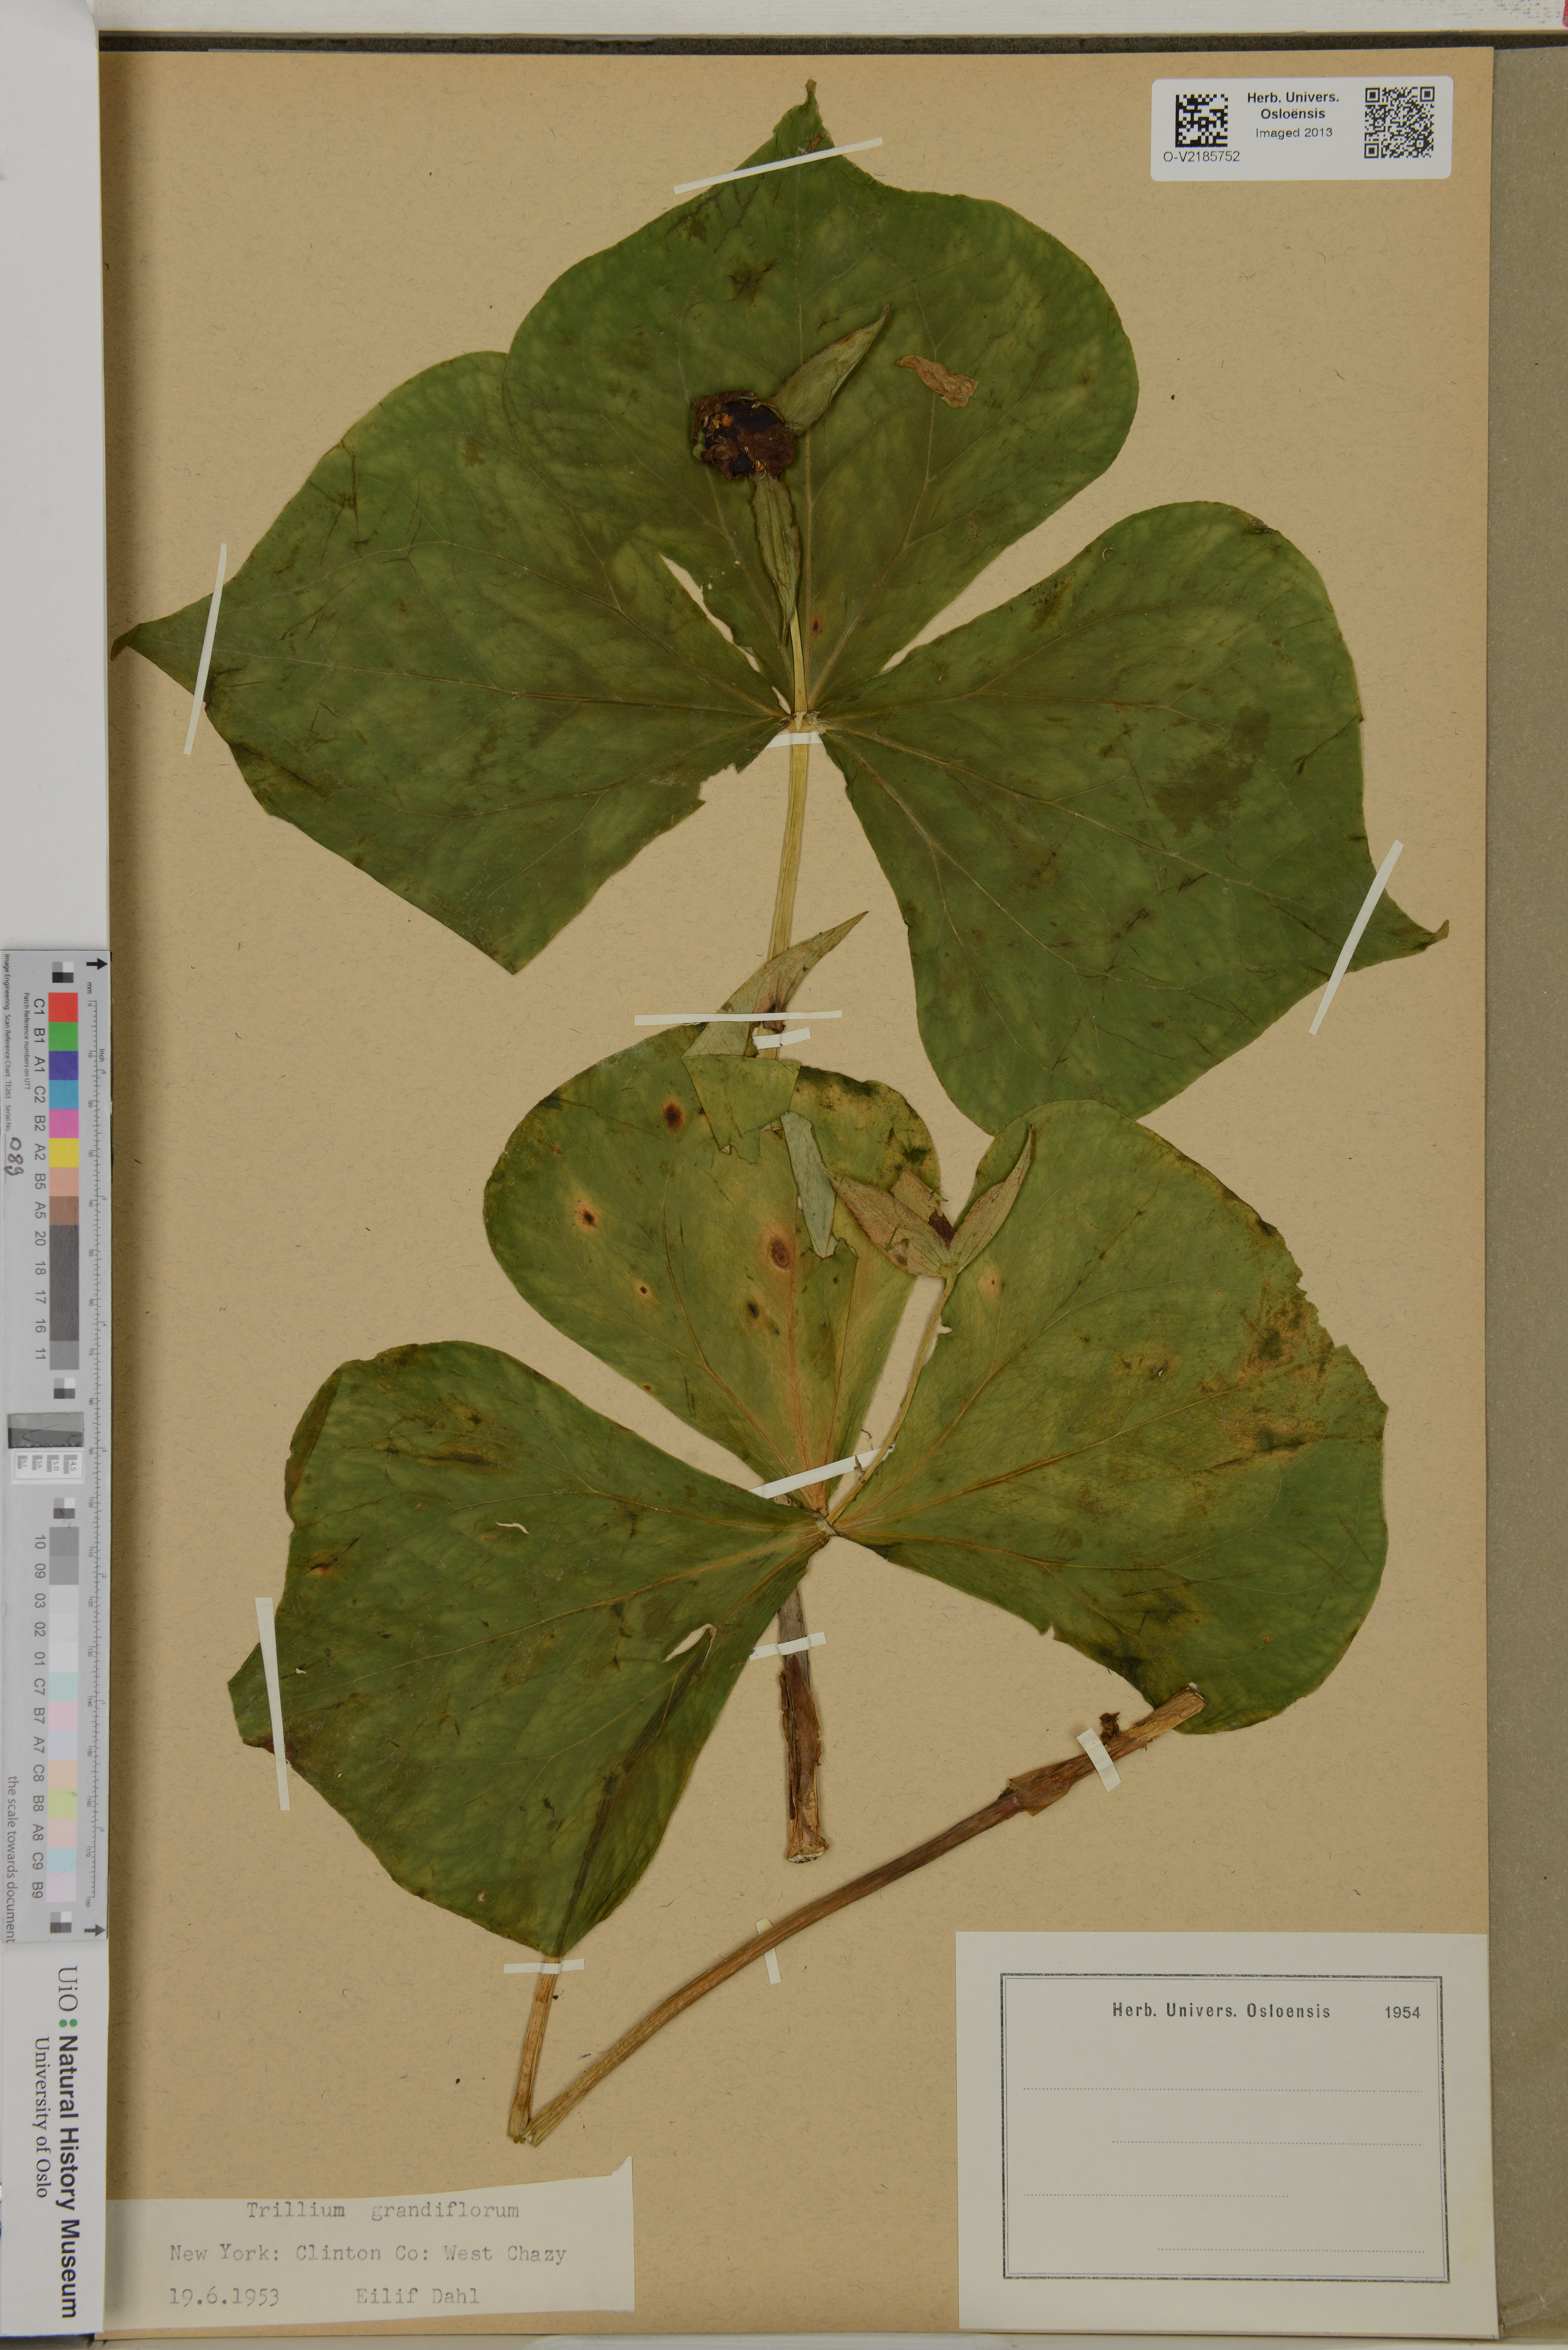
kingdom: Plantae
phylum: Tracheophyta
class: Liliopsida
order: Liliales
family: Melanthiaceae
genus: Trillium
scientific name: Trillium grandiflorum
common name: Great white trillium
